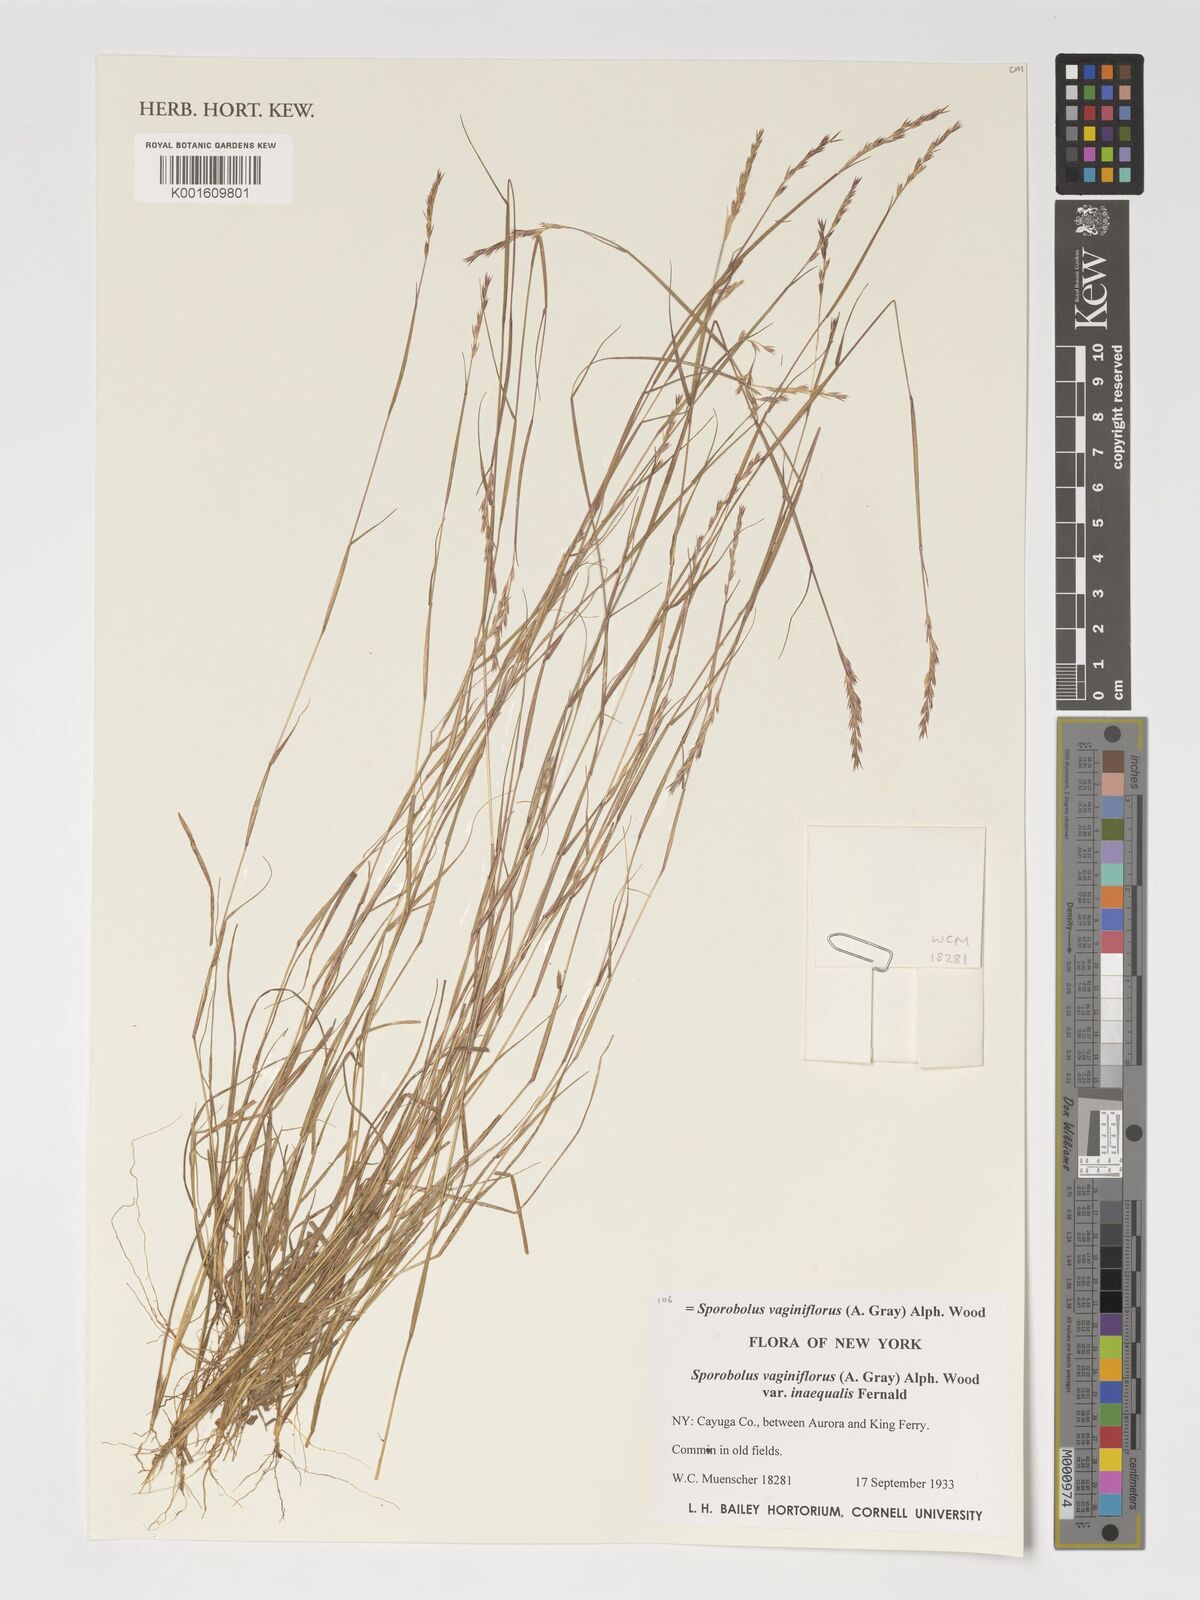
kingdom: Plantae
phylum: Tracheophyta
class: Liliopsida
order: Poales
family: Poaceae
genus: Sporobolus
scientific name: Sporobolus vaginiflorus
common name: Poverty dropseed
